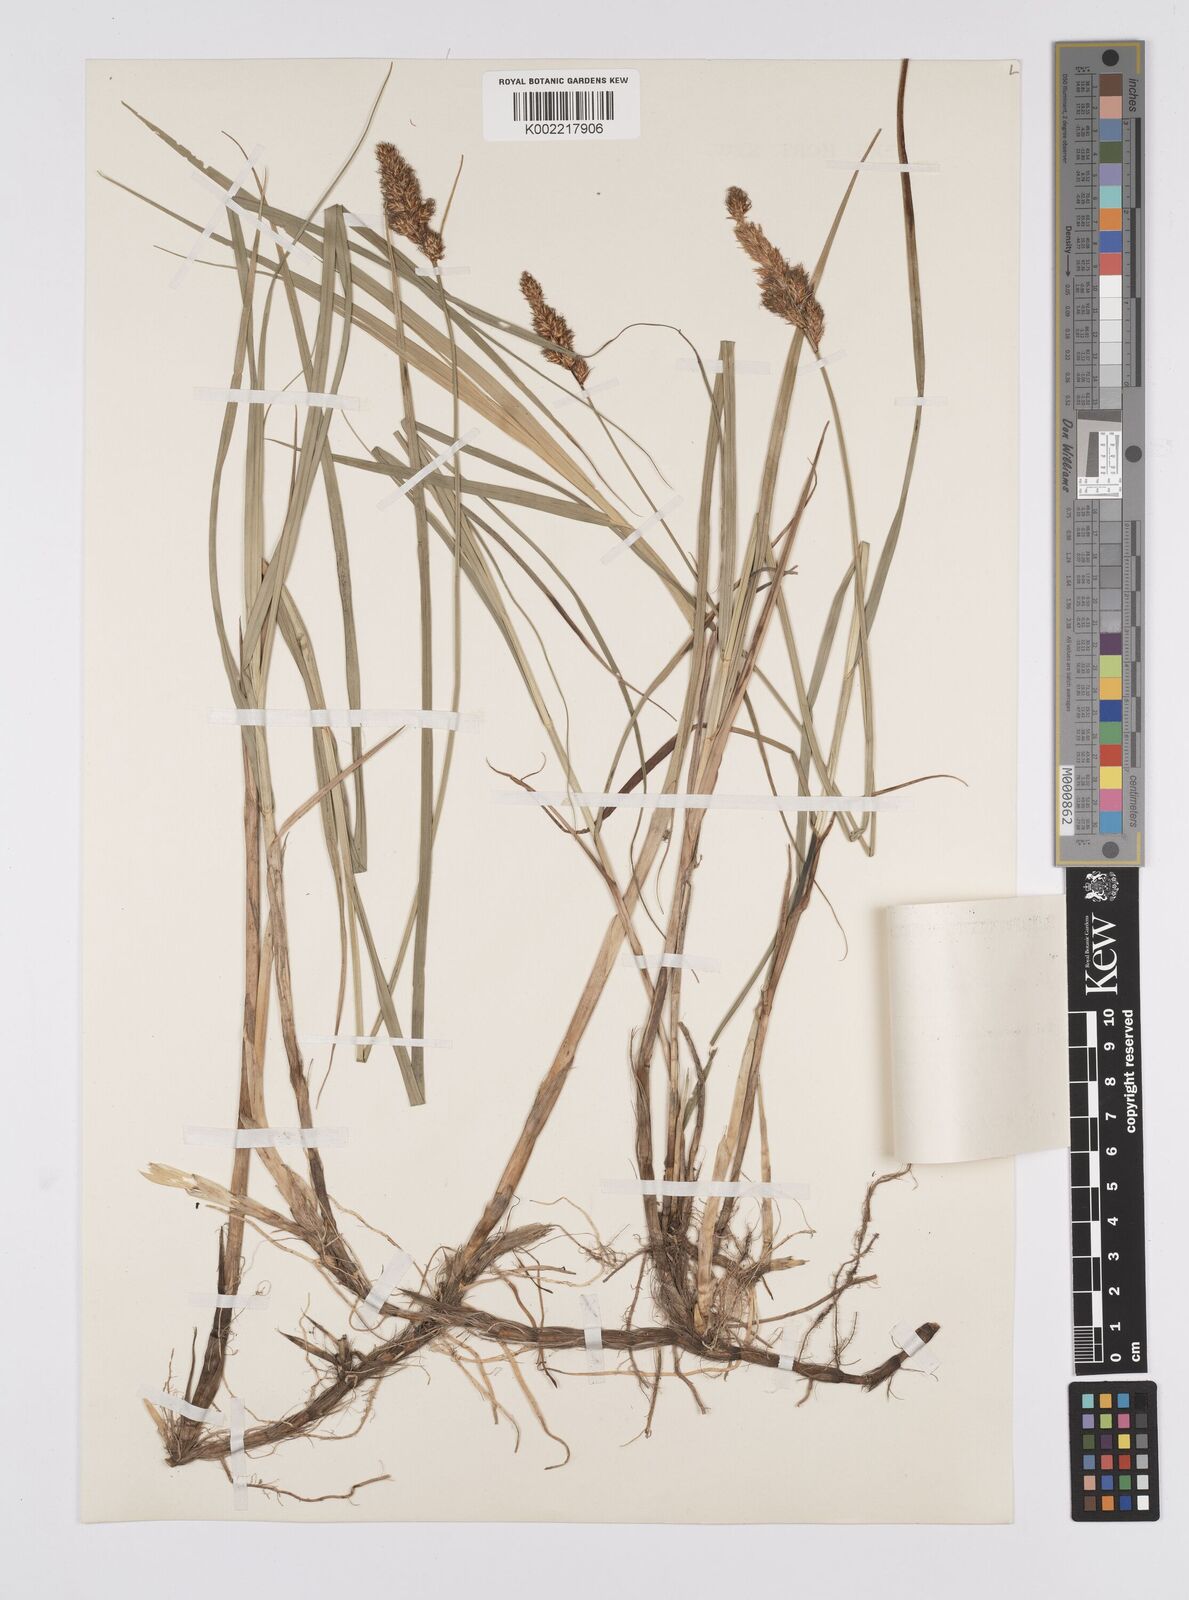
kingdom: Plantae
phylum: Tracheophyta
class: Liliopsida
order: Poales
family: Cyperaceae
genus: Carex
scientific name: Carex disticha
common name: Brown sedge
